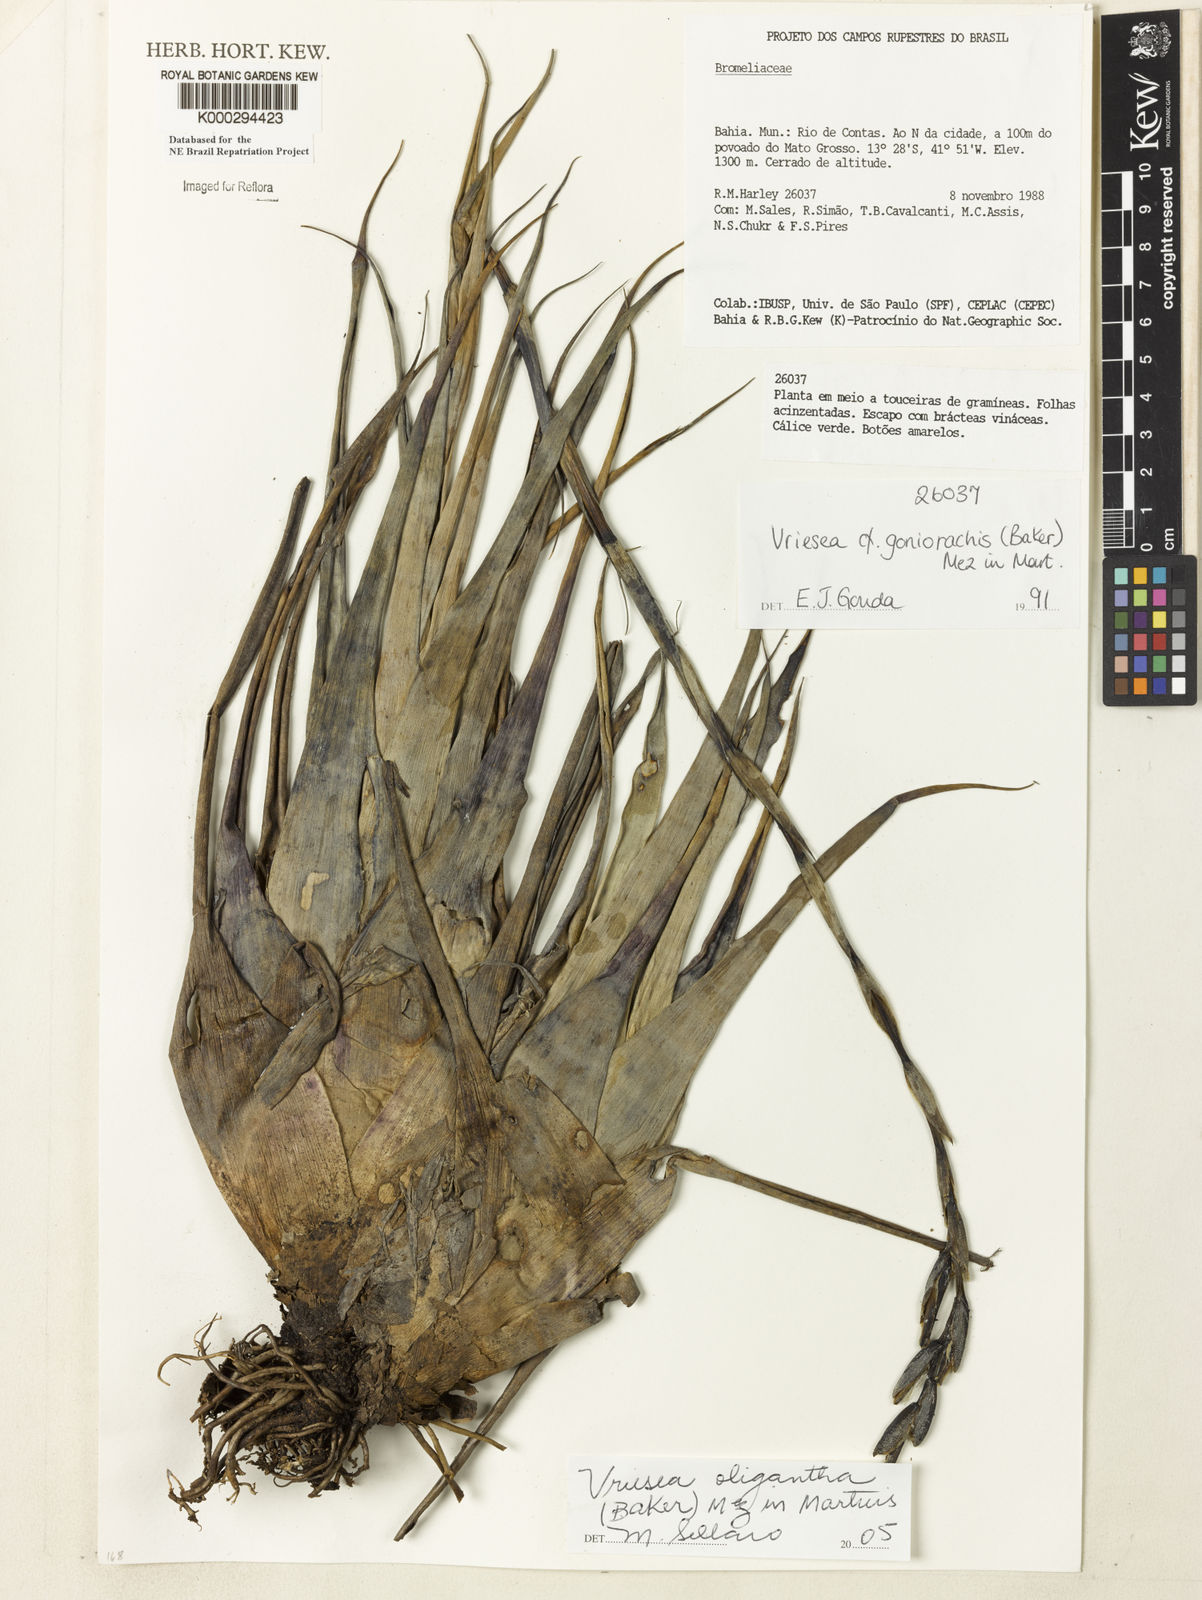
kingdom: Plantae
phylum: Tracheophyta
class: Liliopsida
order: Poales
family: Bromeliaceae
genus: Vriesea
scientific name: Vriesea oligantha
